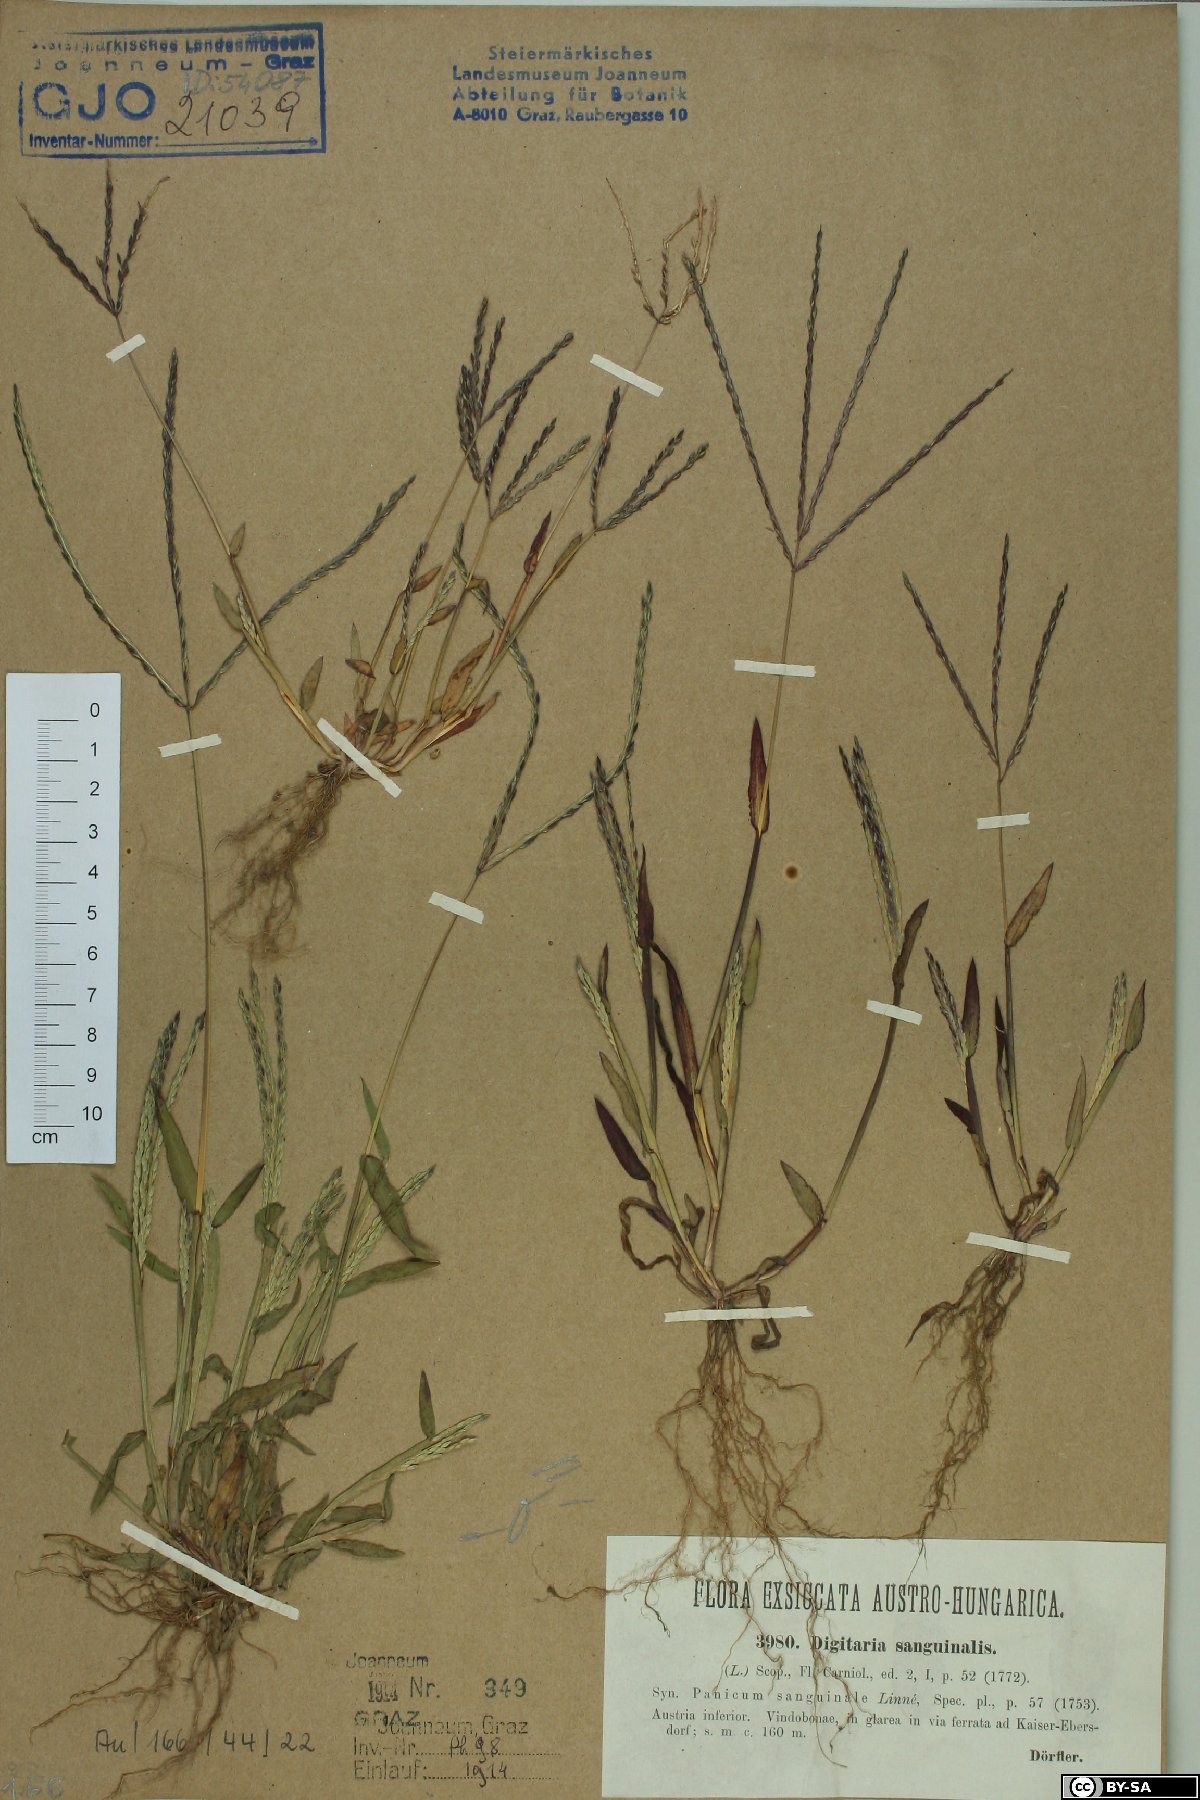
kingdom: Plantae
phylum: Tracheophyta
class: Liliopsida
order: Poales
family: Poaceae
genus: Digitaria
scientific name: Digitaria sanguinalis
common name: Hairy crabgrass
